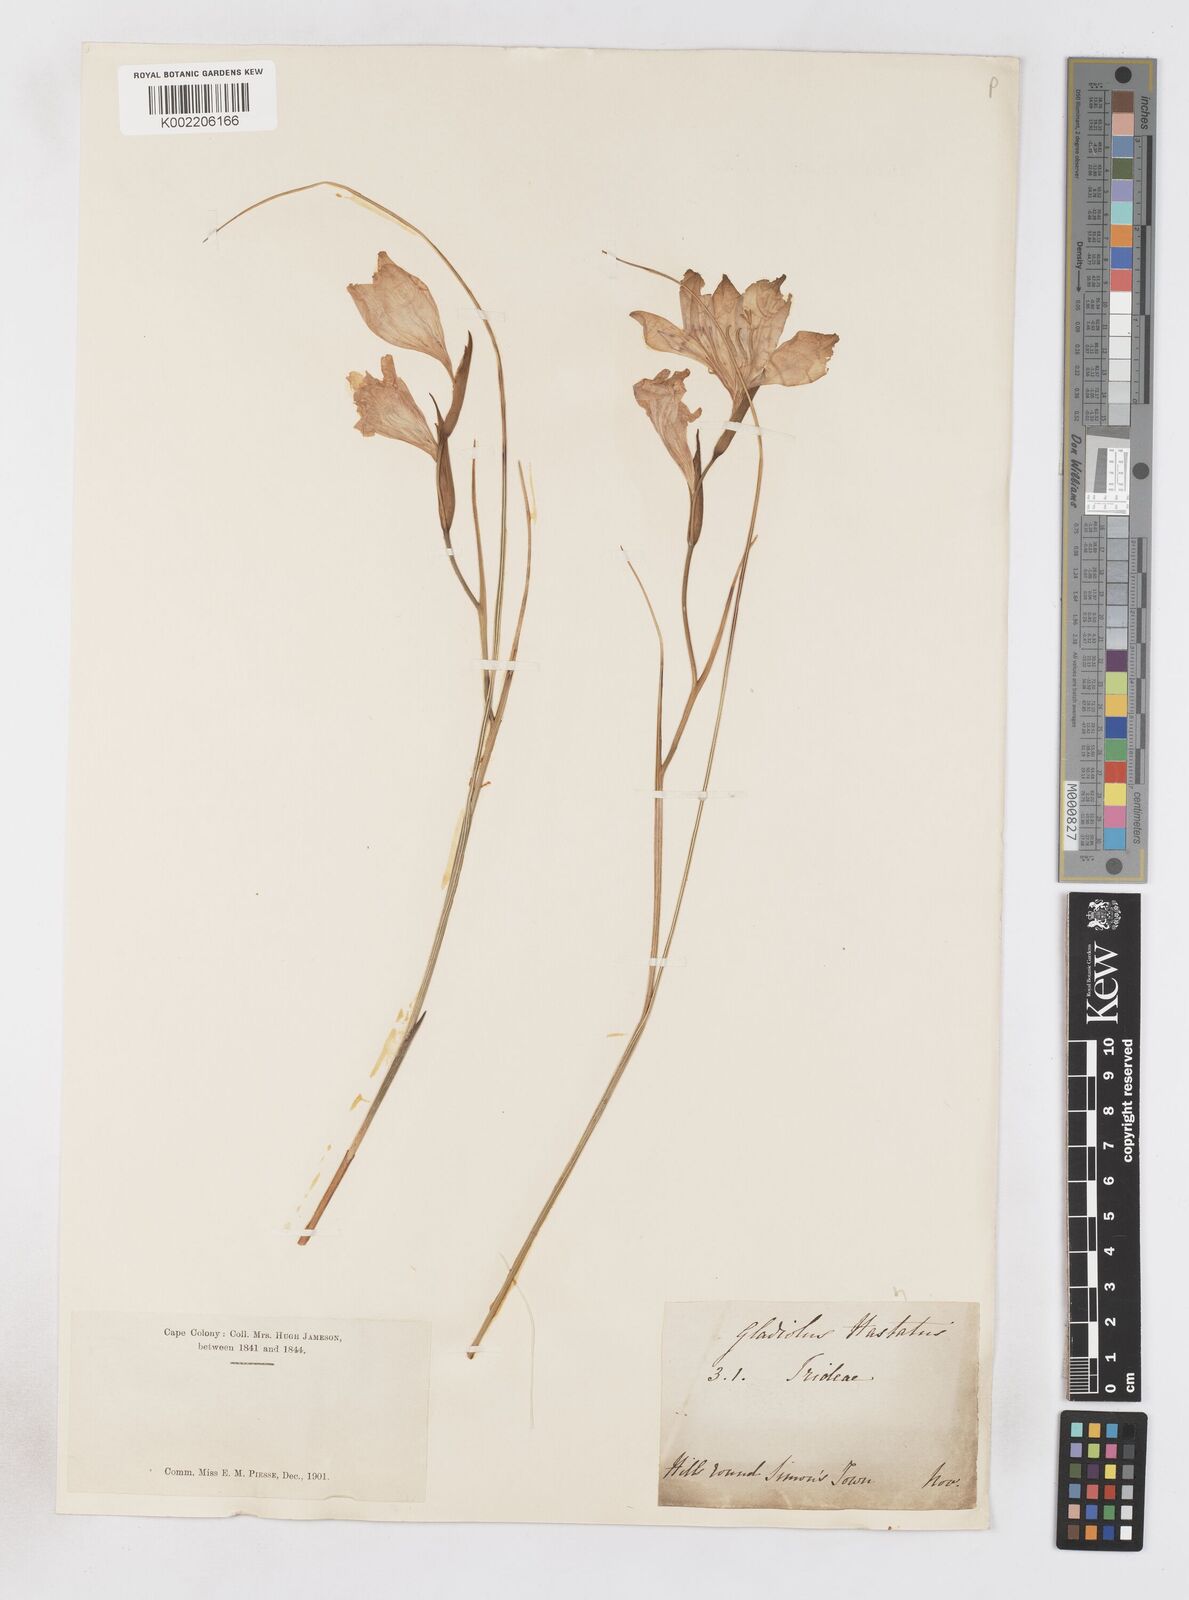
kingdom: Plantae
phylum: Tracheophyta
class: Liliopsida
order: Asparagales
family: Iridaceae
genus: Gladiolus
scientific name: Gladiolus ornatus
